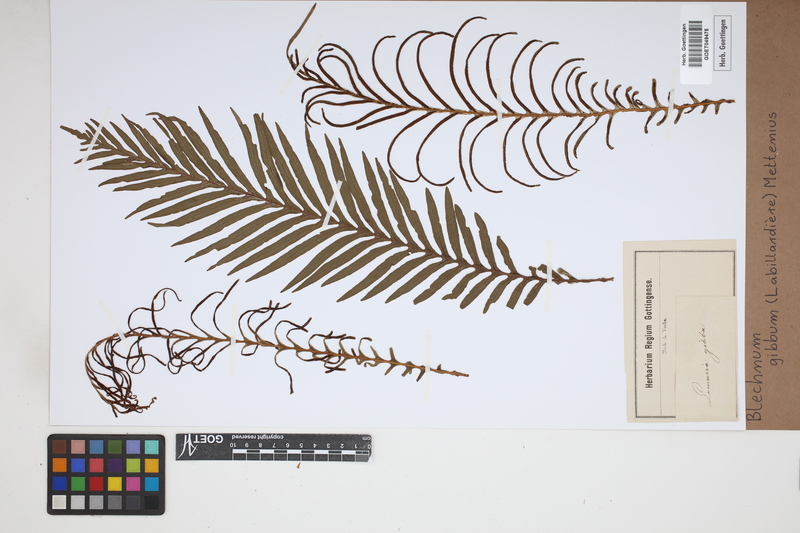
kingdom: Plantae
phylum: Tracheophyta
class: Polypodiopsida
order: Polypodiales
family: Blechnaceae
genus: Oceaniopteris
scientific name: Oceaniopteris gibba
